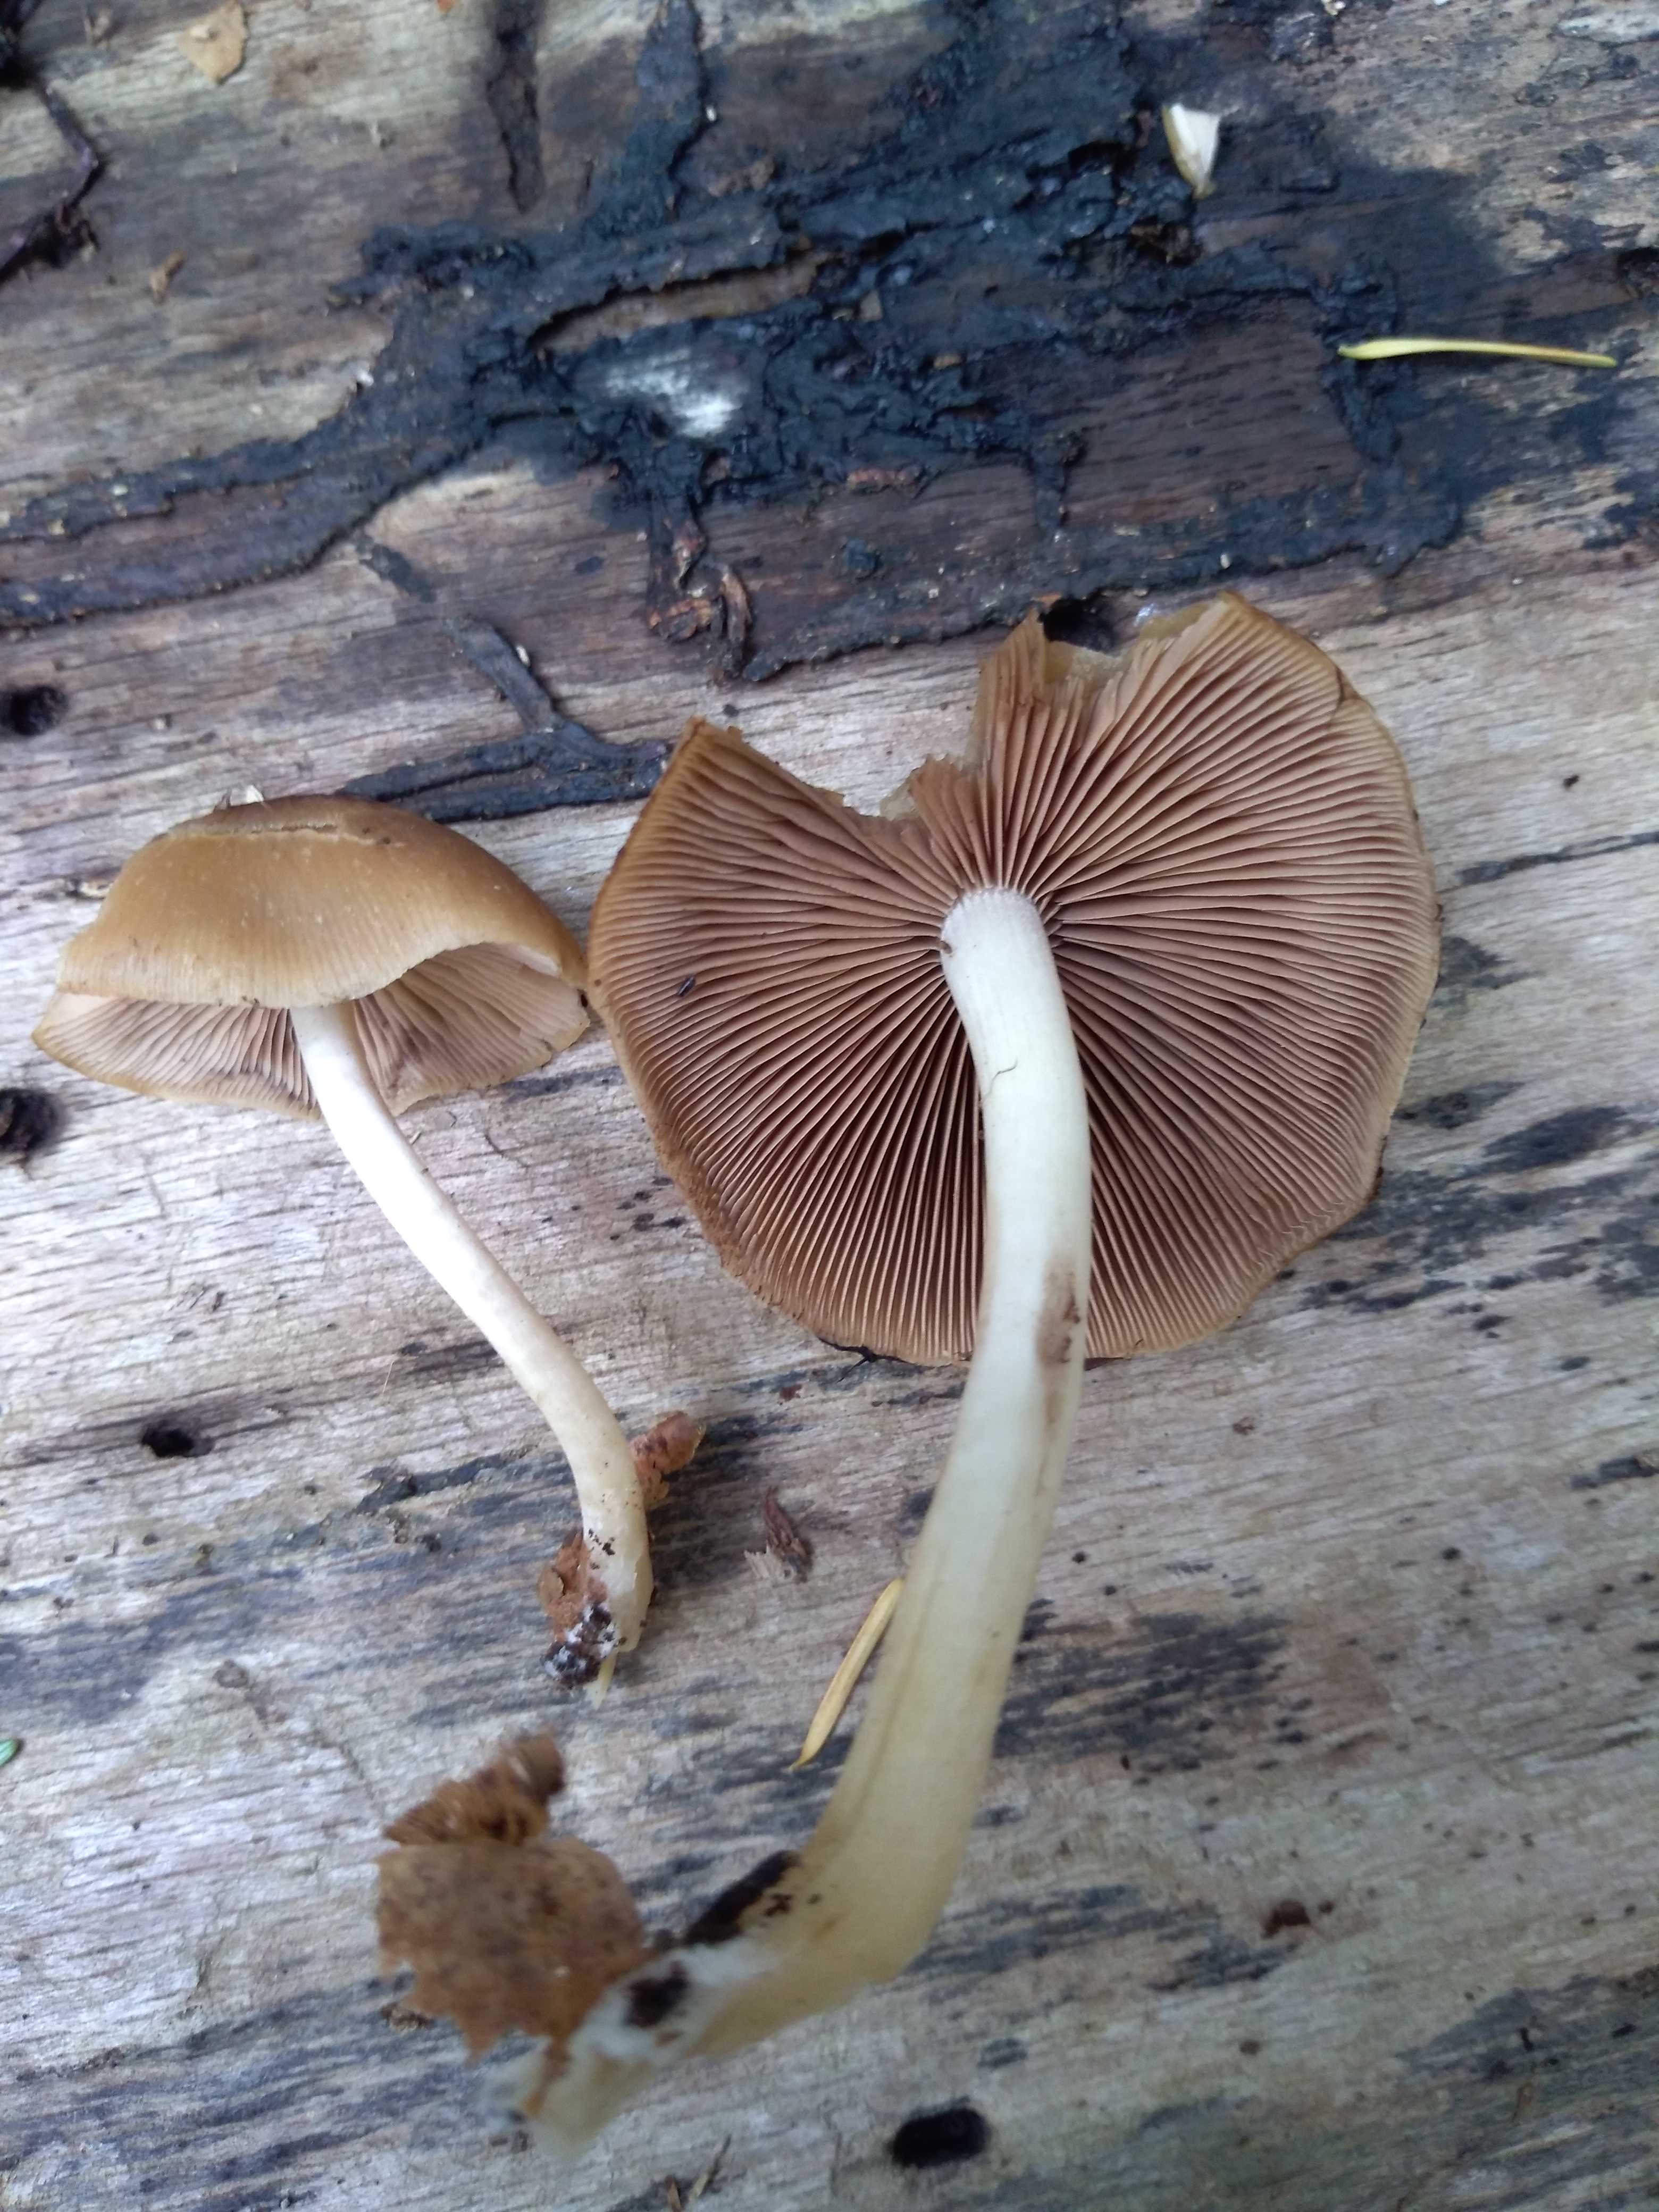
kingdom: Fungi
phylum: Basidiomycota
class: Agaricomycetes
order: Agaricales
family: Psathyrellaceae
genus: Psathyrella
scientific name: Psathyrella piluliformis
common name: lysstokket mørkhat
